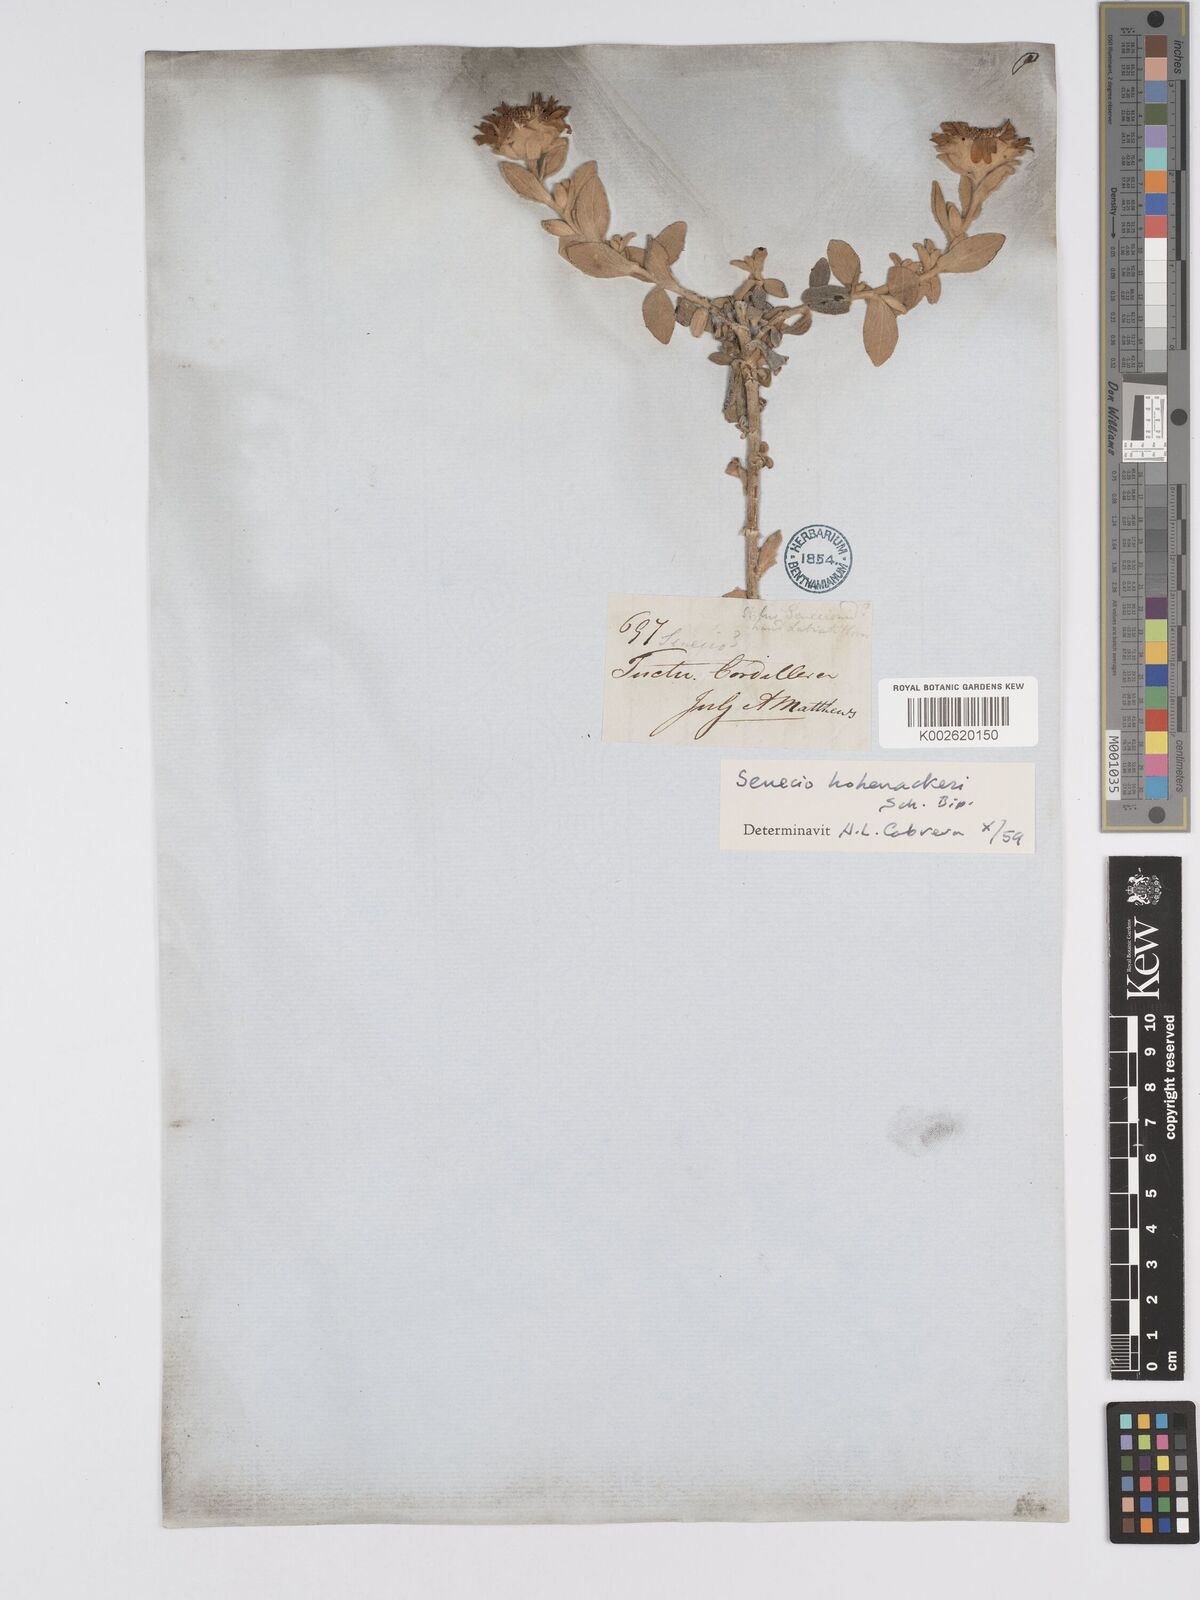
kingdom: Plantae
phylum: Tracheophyta
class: Magnoliopsida
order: Asterales
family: Asteraceae
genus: Senecio
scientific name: Senecio hohenackeri
